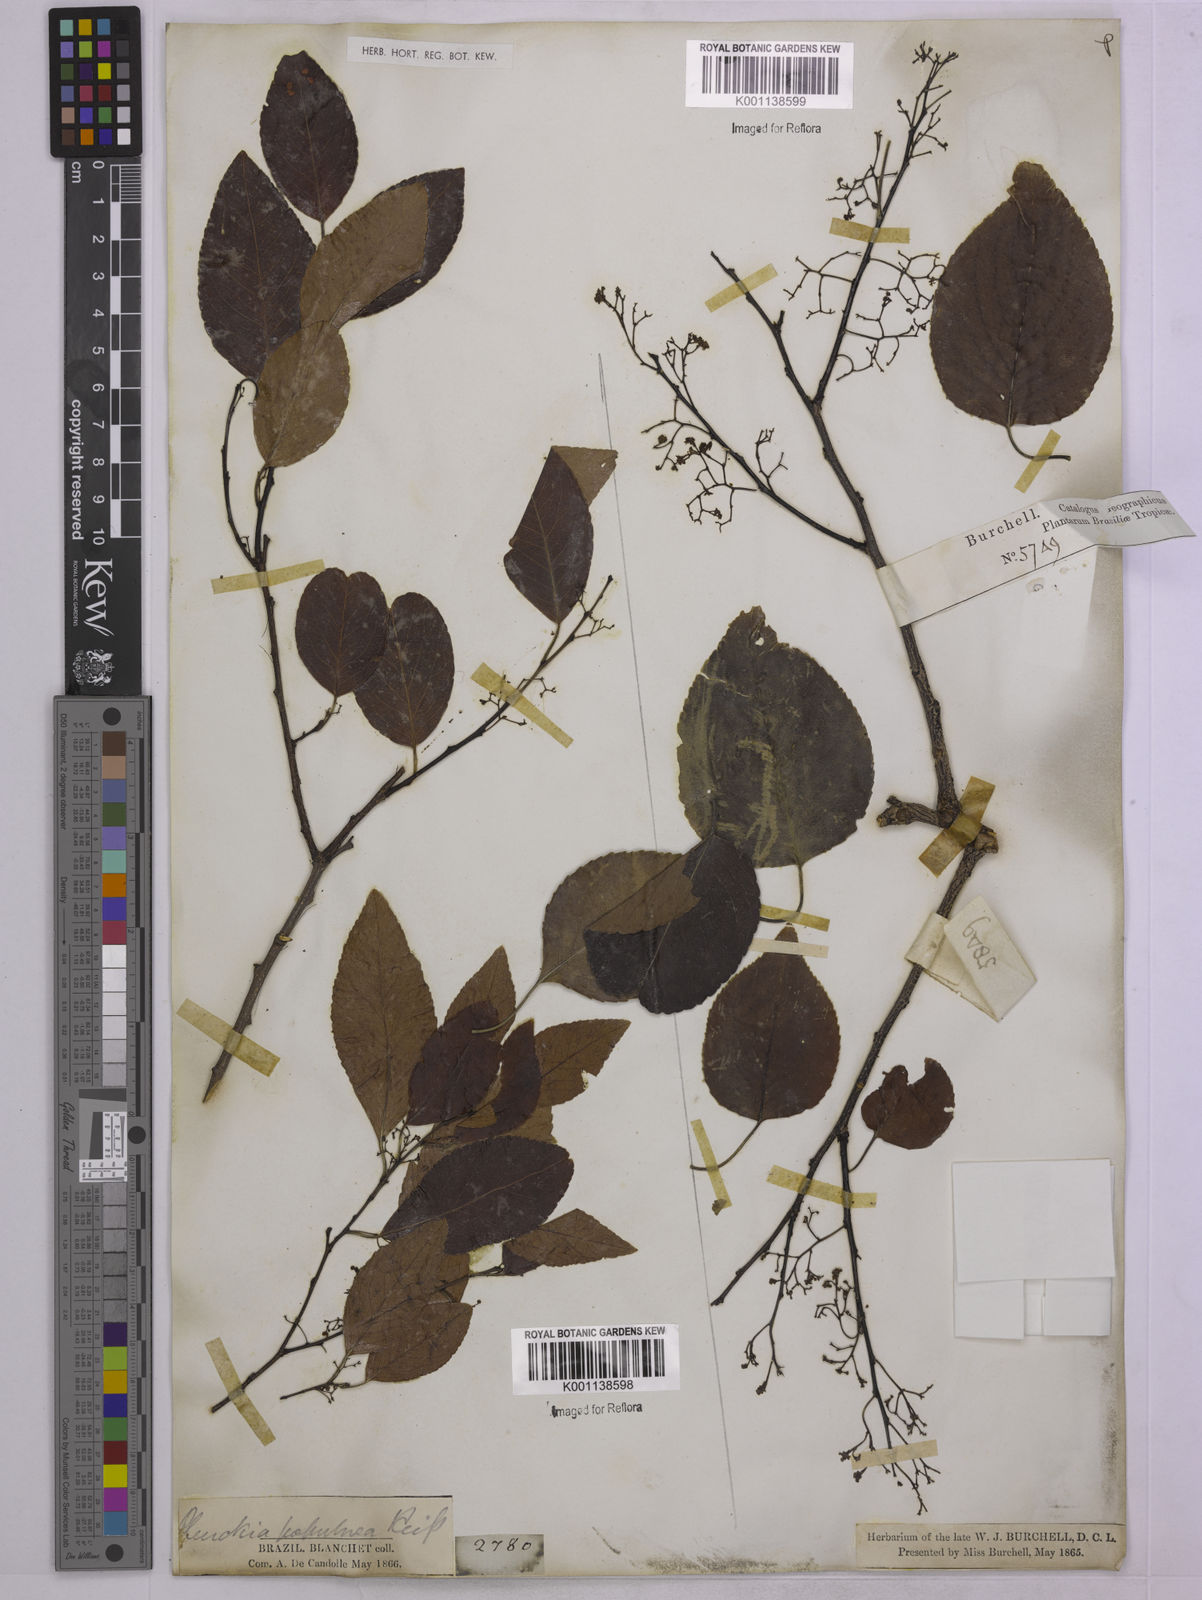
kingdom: Plantae
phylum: Tracheophyta
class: Magnoliopsida
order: Celastrales
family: Celastraceae
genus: Plenckia
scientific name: Plenckia populnea
